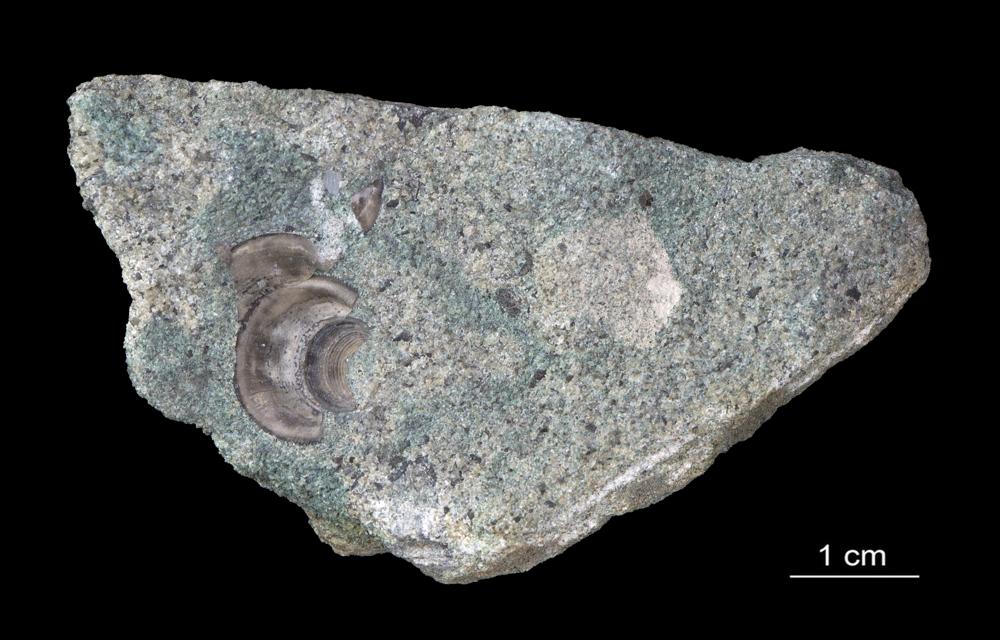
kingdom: Animalia
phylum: Brachiopoda
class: Lingulata
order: Lingulida
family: Zhanatellidae
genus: Thysanotos
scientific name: Thysanotos
